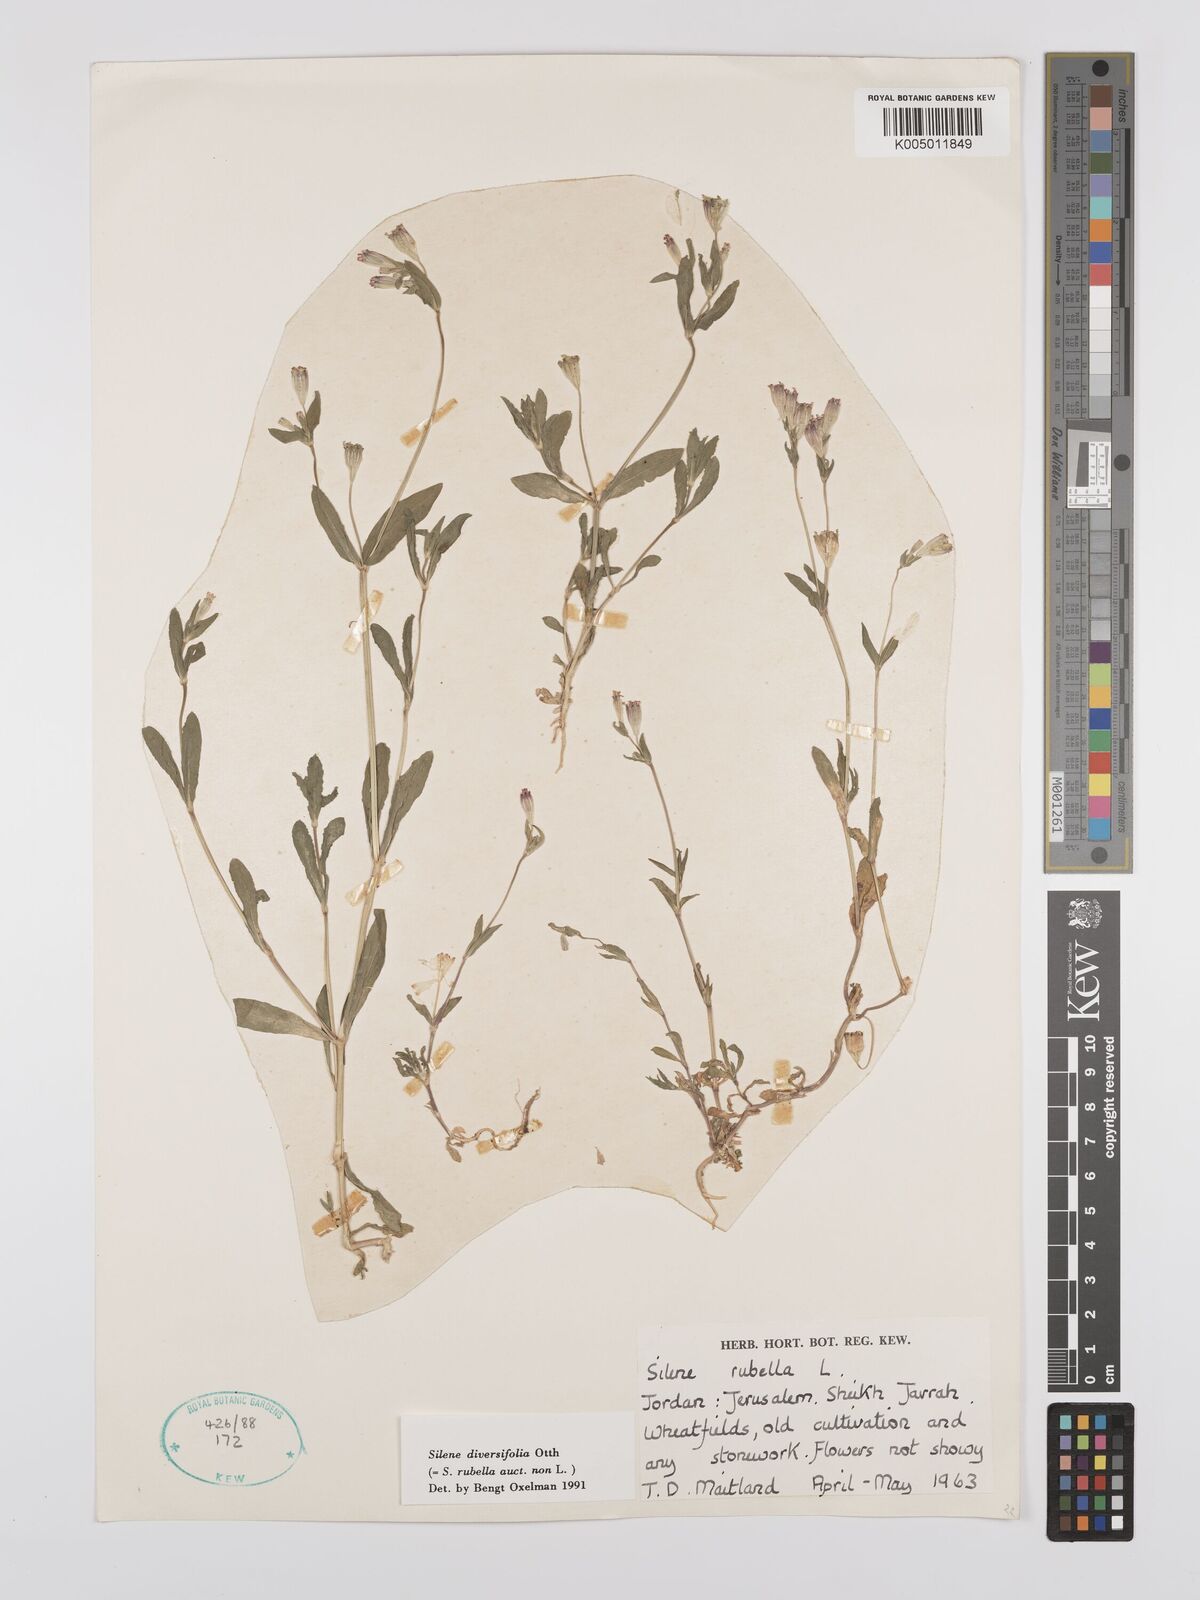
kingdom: Plantae
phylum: Tracheophyta
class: Magnoliopsida
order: Caryophyllales
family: Caryophyllaceae
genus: Silene
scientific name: Silene rubella
